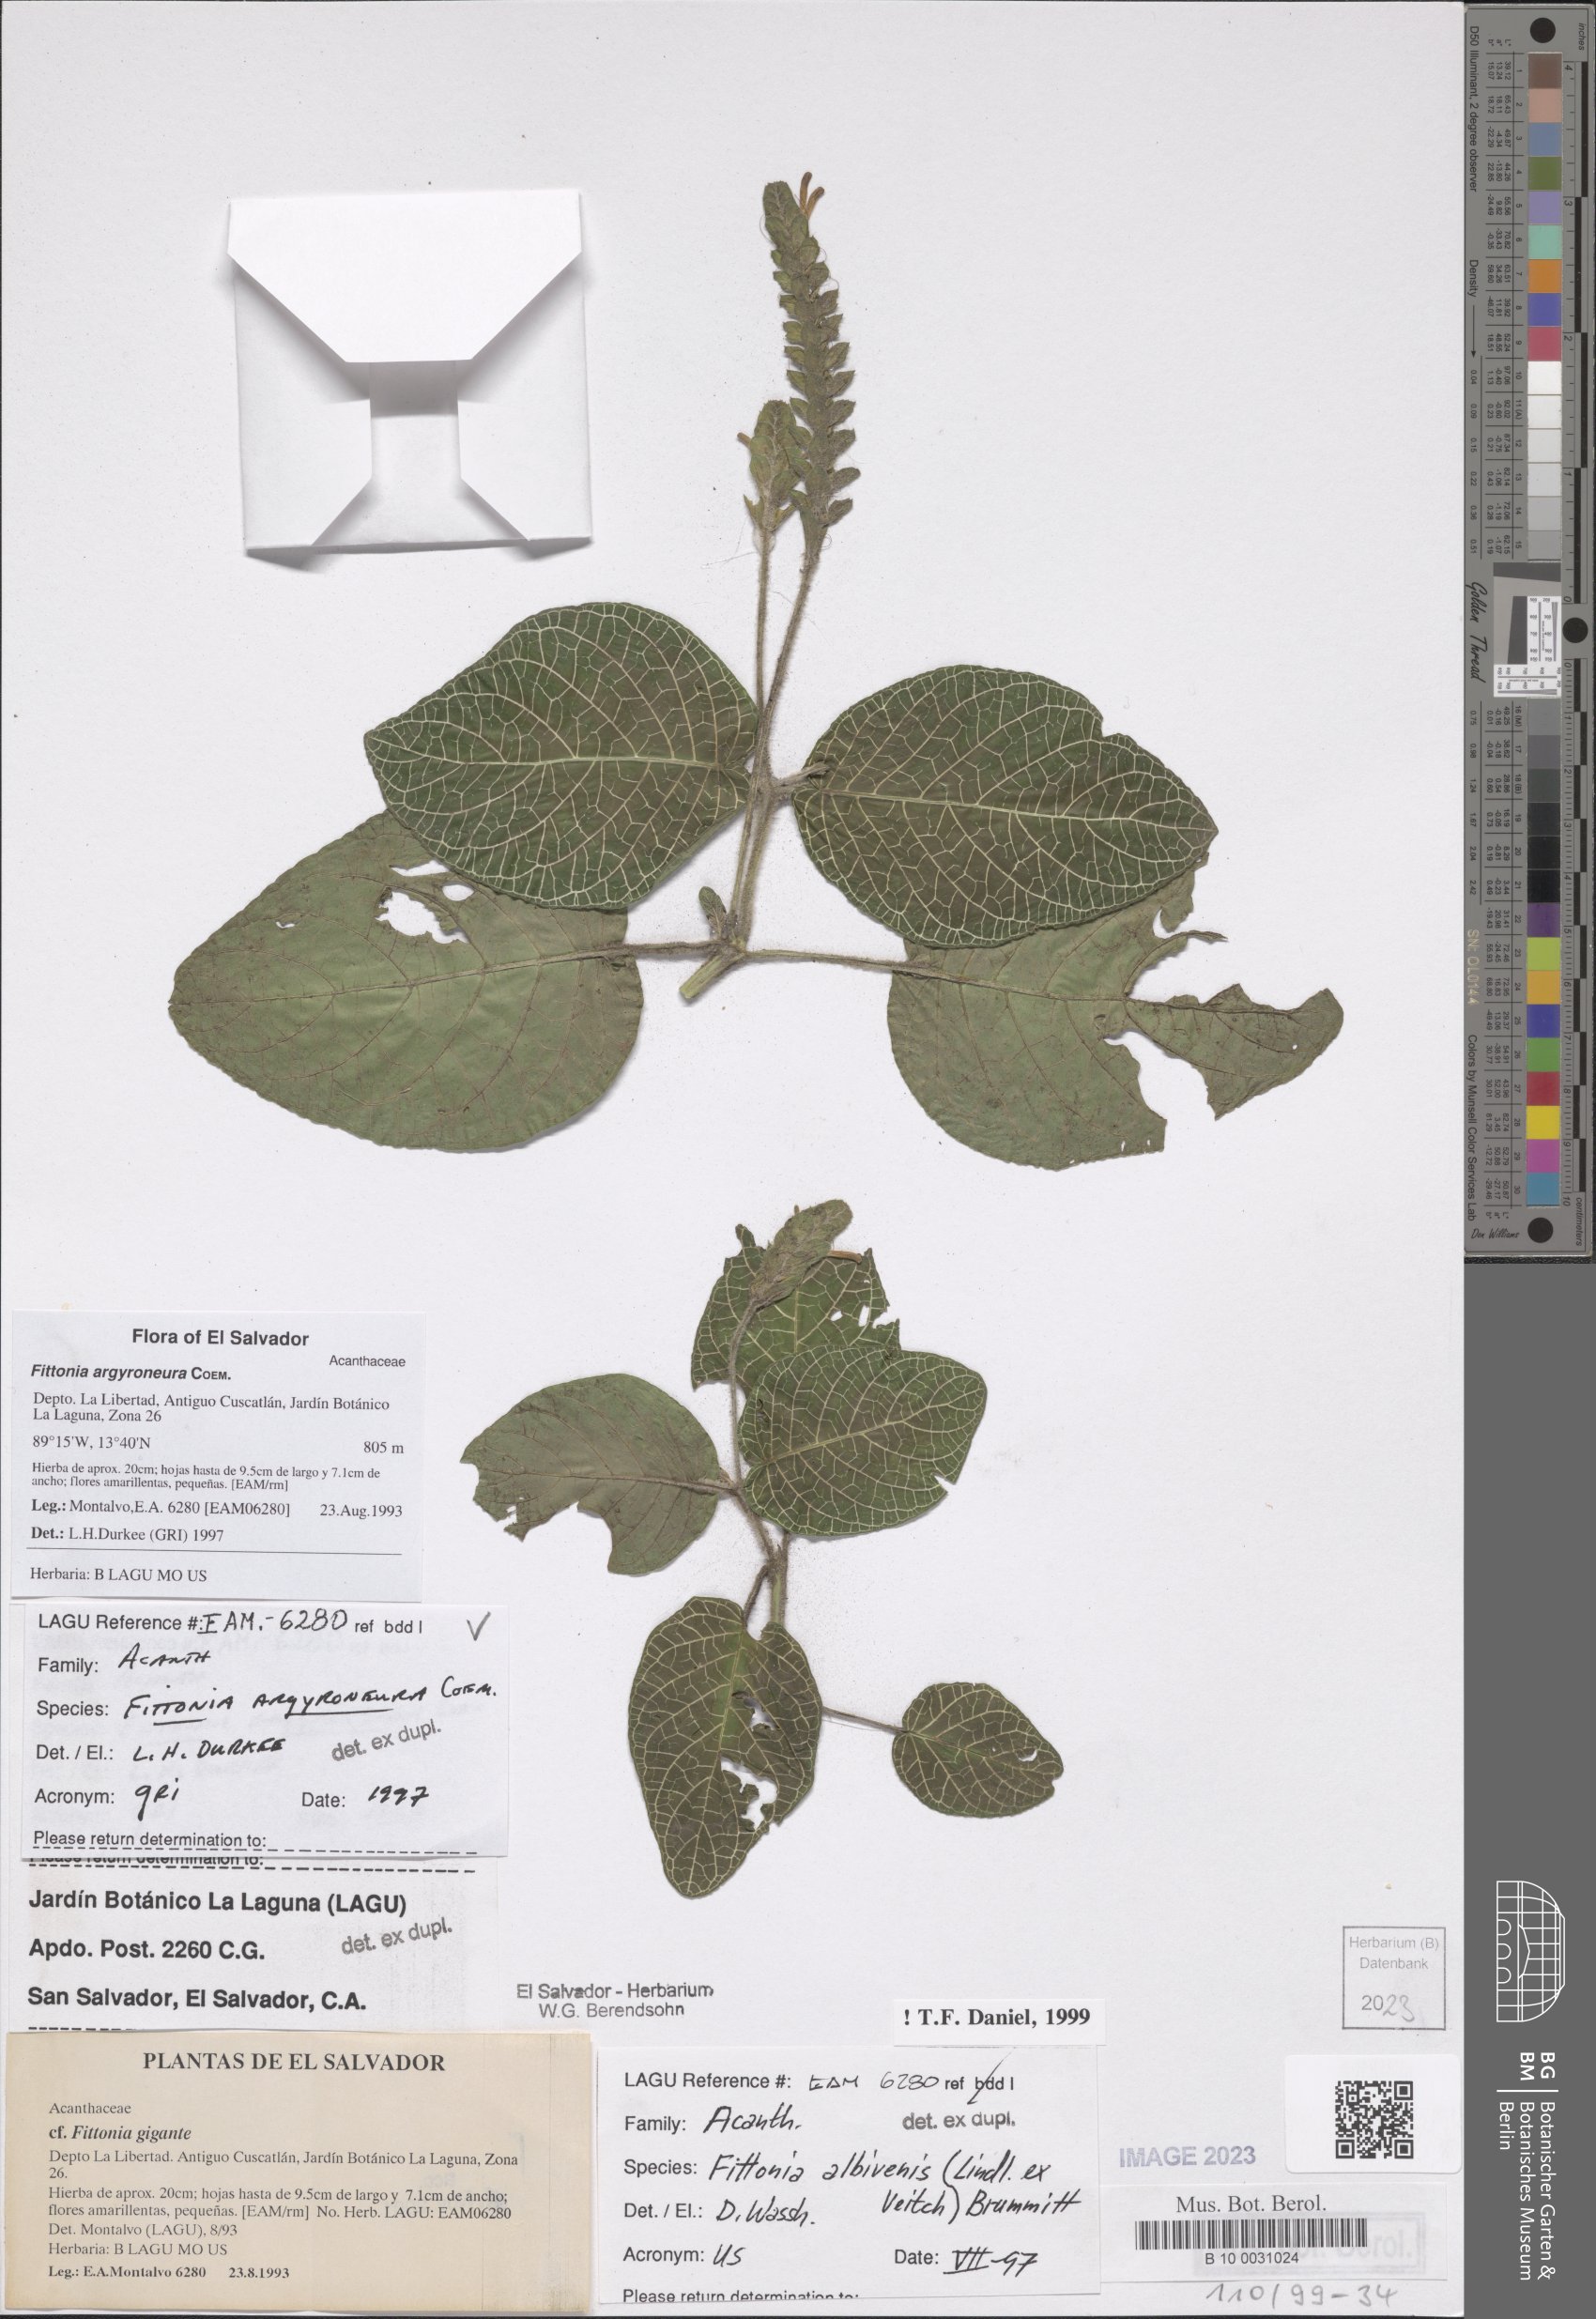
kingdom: Plantae
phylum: Tracheophyta
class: Magnoliopsida
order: Lamiales
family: Acanthaceae
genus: Fittonia
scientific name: Fittonia albivenis
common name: Mosaic-plant
